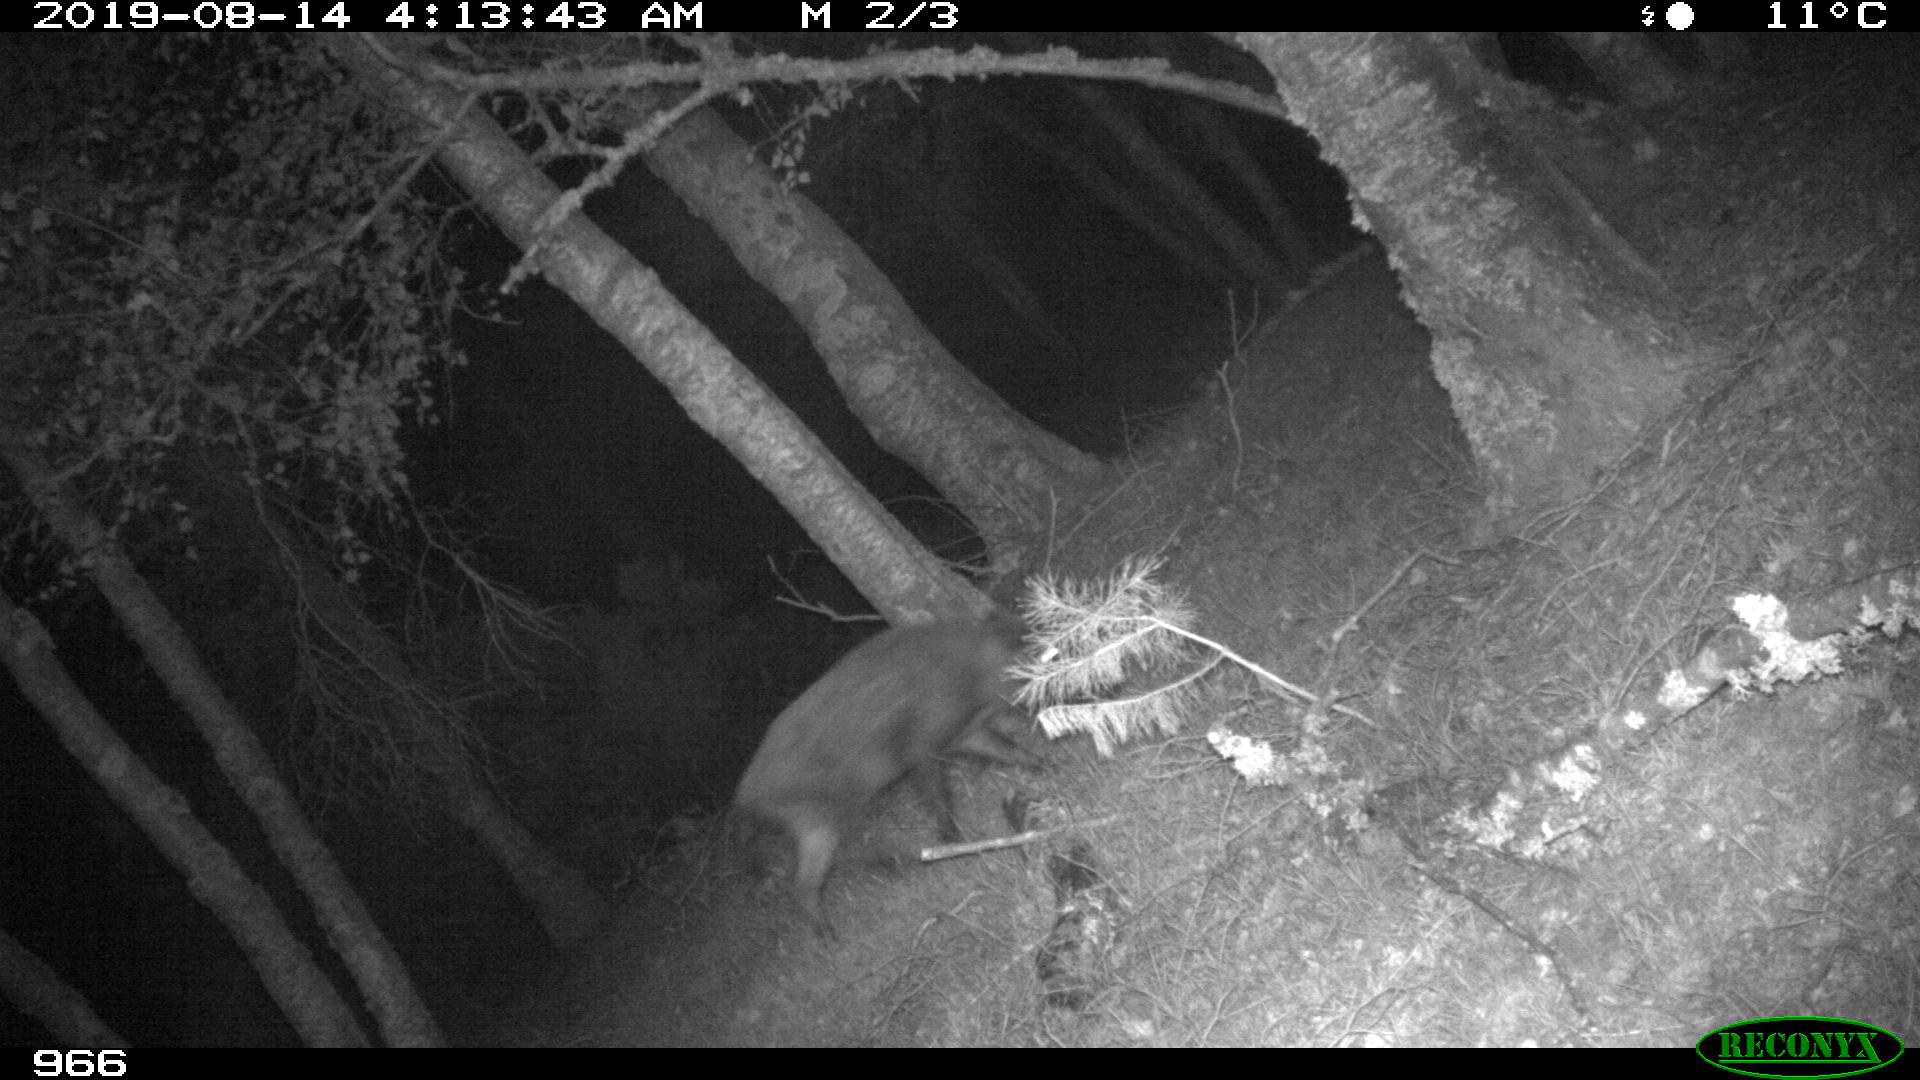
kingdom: Animalia
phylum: Chordata
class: Mammalia
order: Artiodactyla
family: Suidae
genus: Sus
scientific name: Sus scrofa
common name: Wild boar
